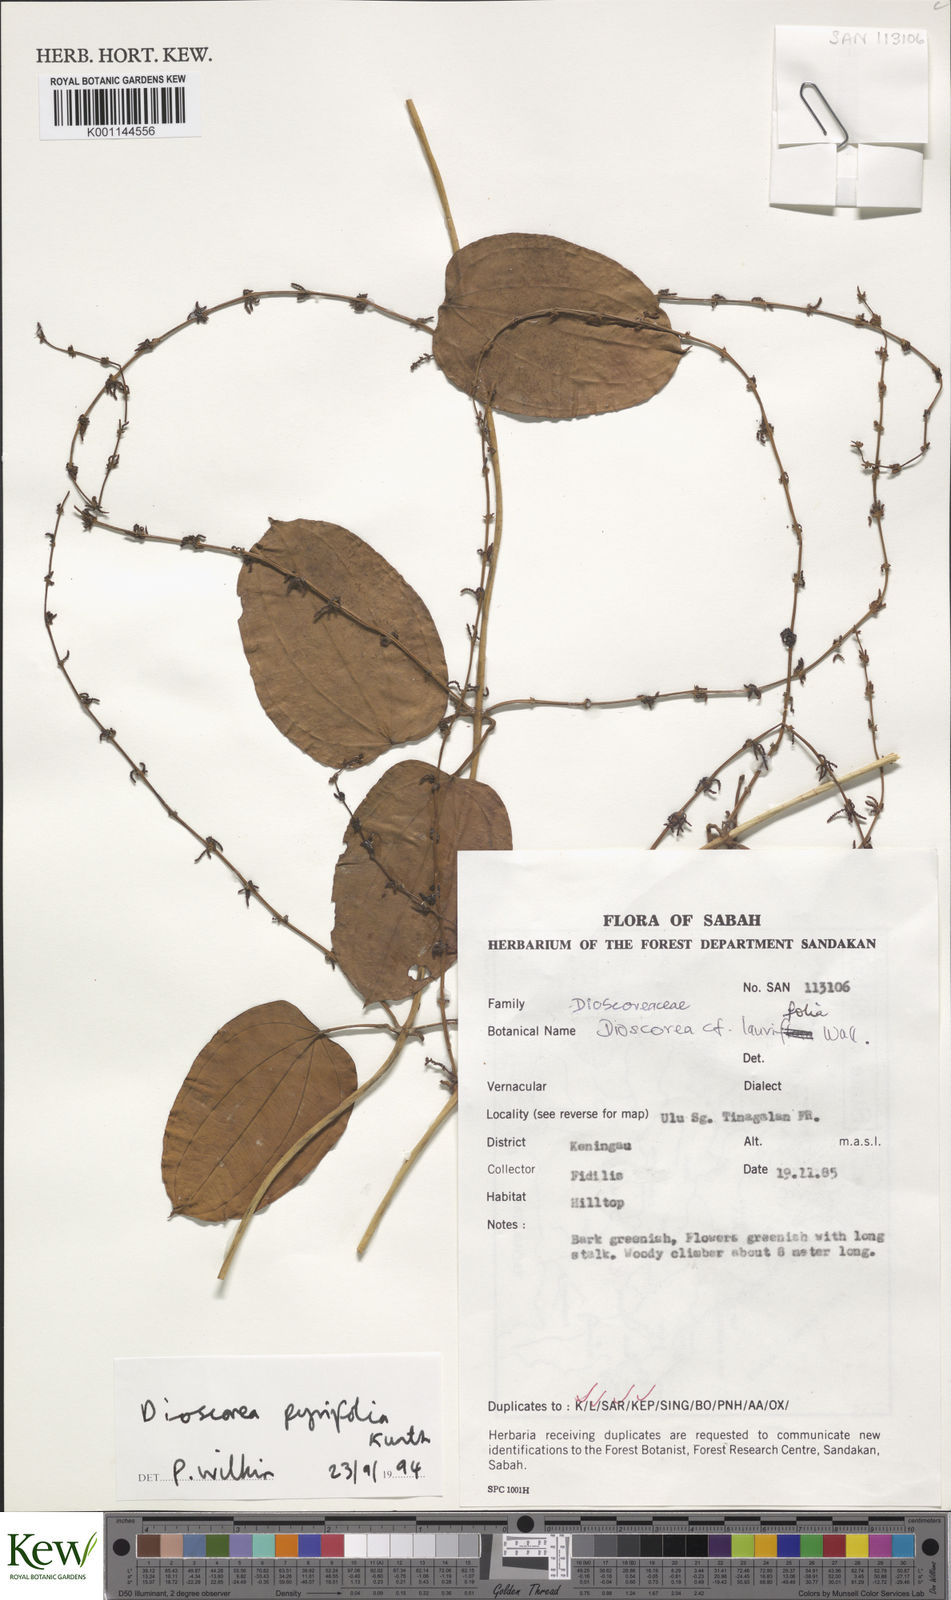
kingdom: Plantae
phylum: Tracheophyta
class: Liliopsida
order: Dioscoreales
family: Dioscoreaceae
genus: Dioscorea
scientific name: Dioscorea pyrifolia
